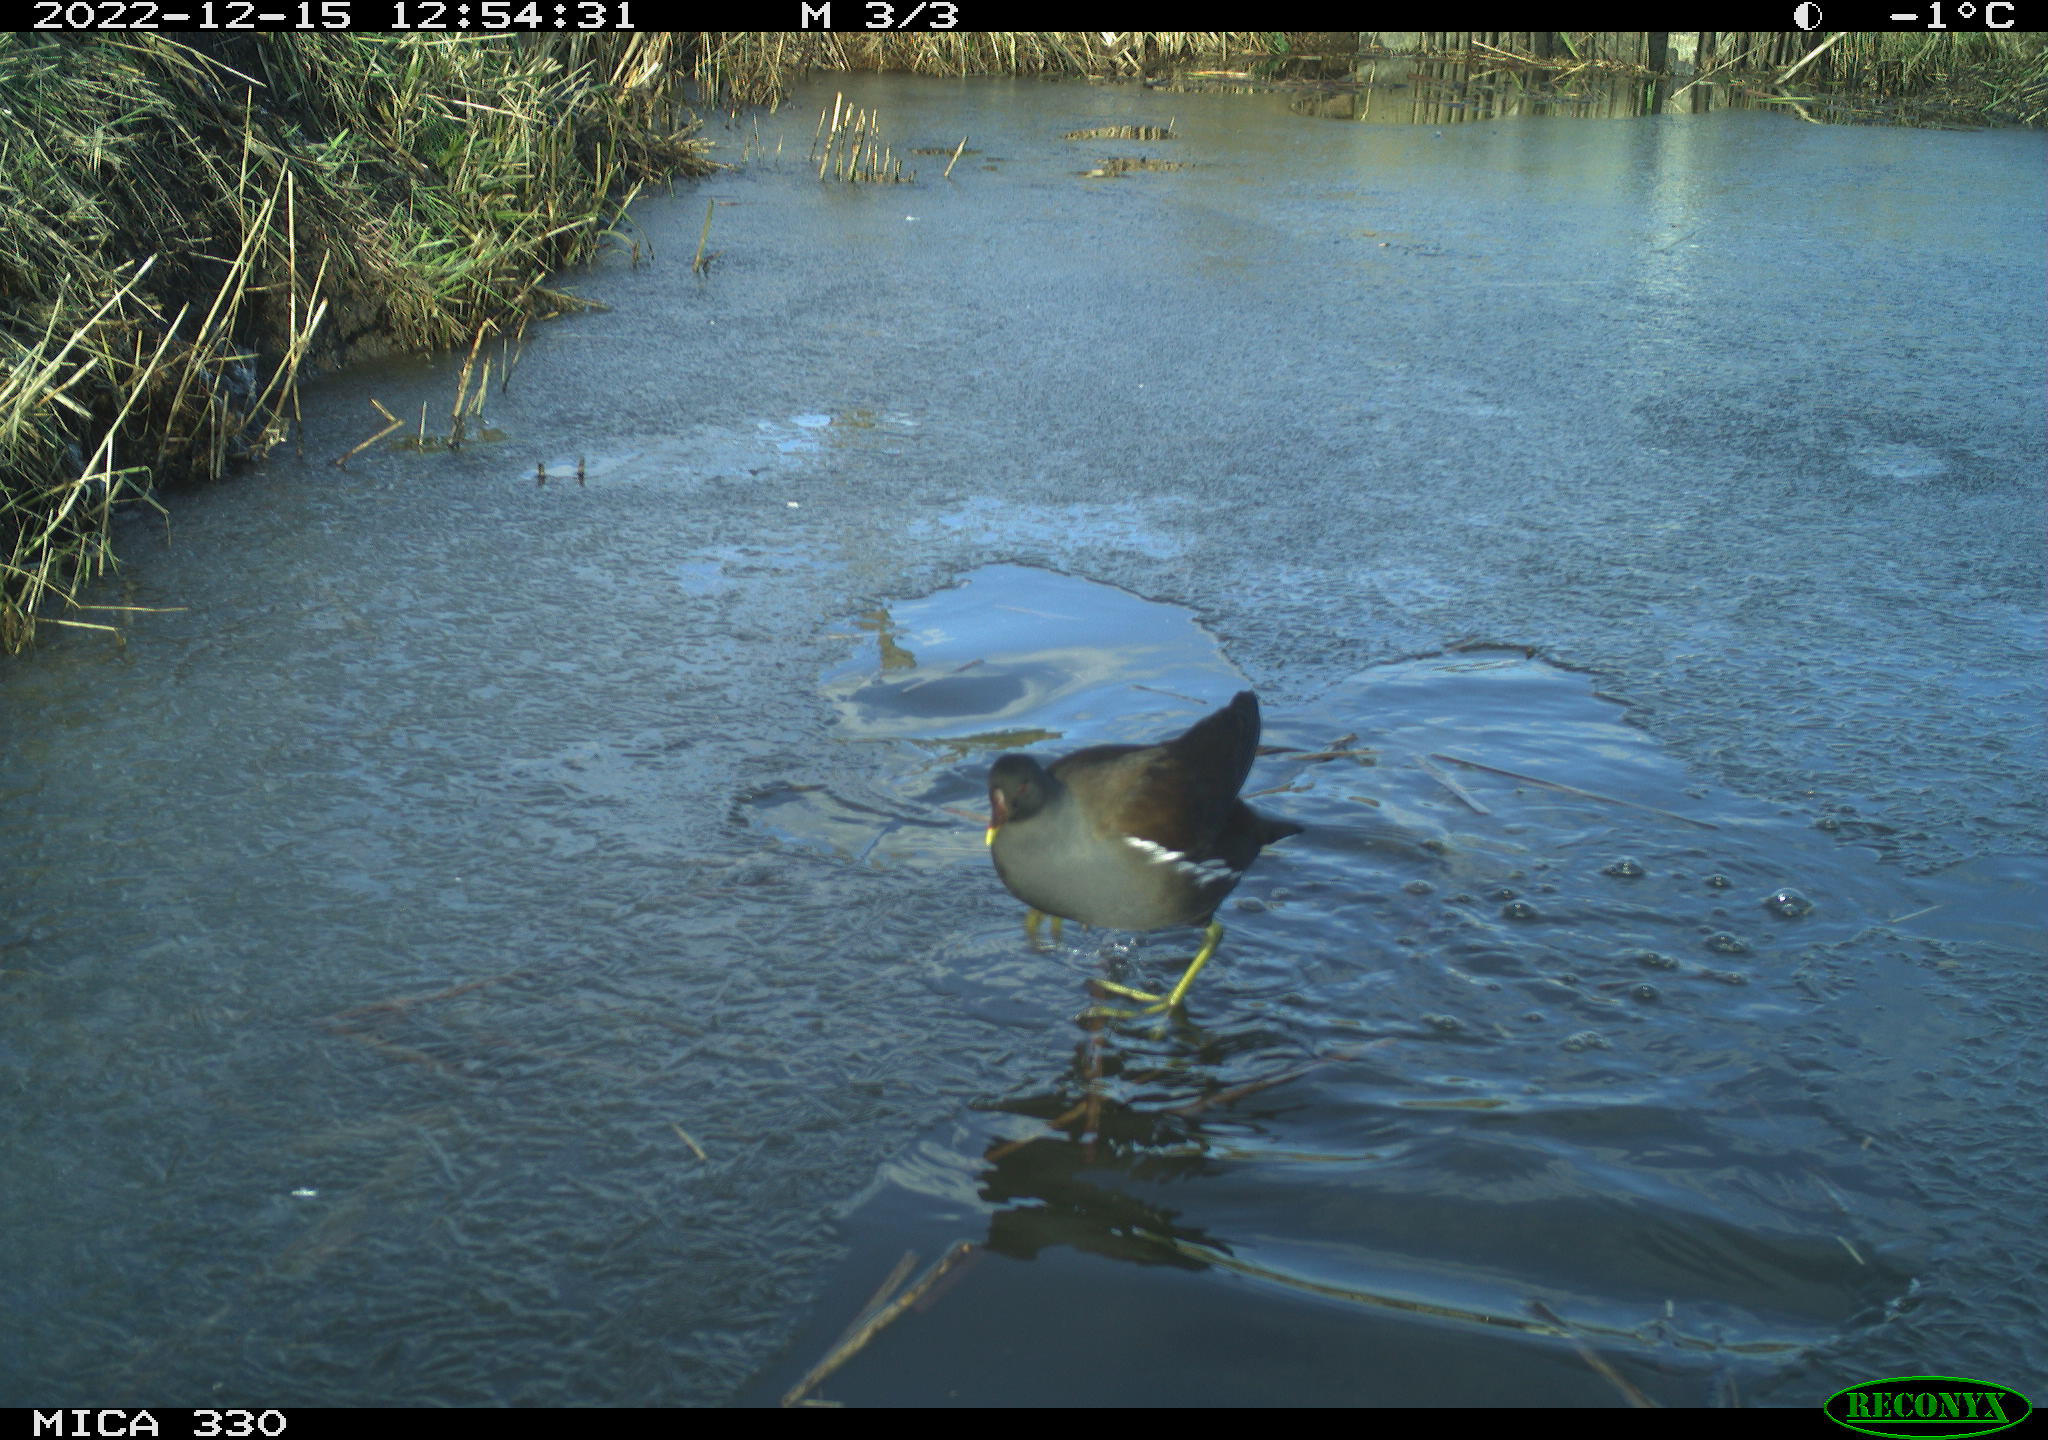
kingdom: Animalia
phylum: Chordata
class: Aves
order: Gruiformes
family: Rallidae
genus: Gallinula
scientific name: Gallinula chloropus
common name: Common moorhen
